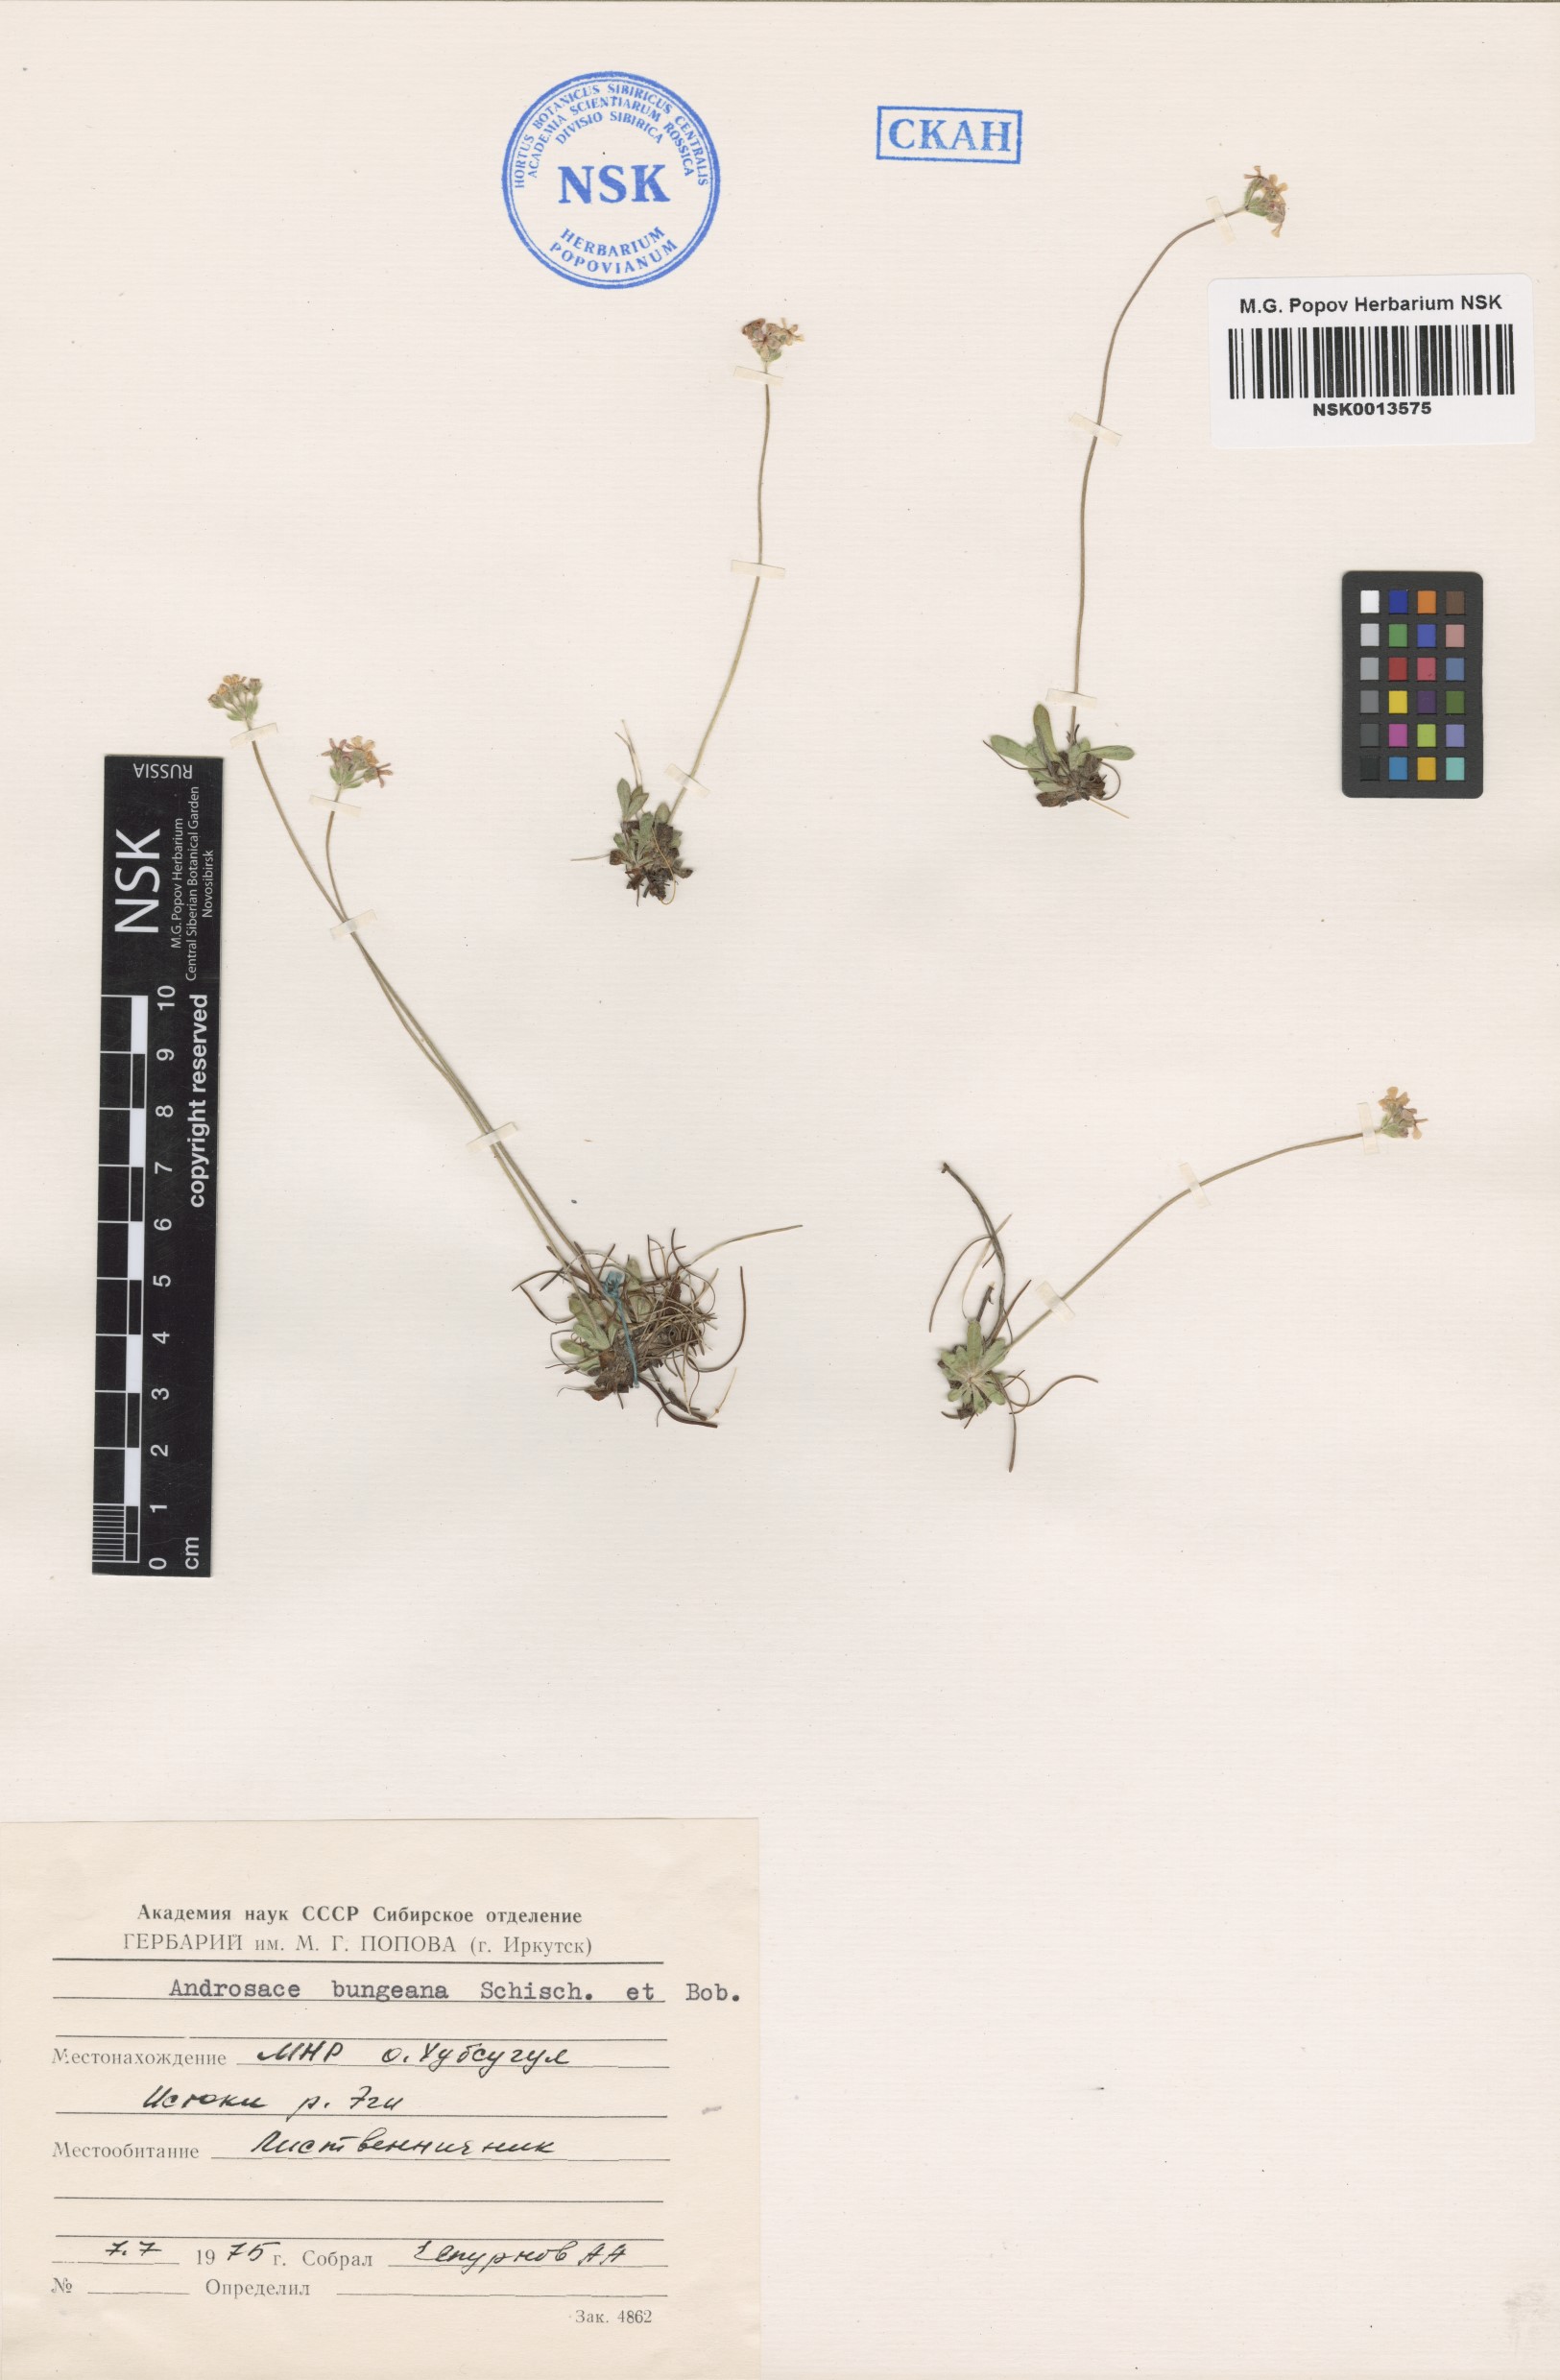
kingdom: Plantae
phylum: Tracheophyta
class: Magnoliopsida
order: Ericales
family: Primulaceae
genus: Androsace
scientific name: Androsace bungeana
